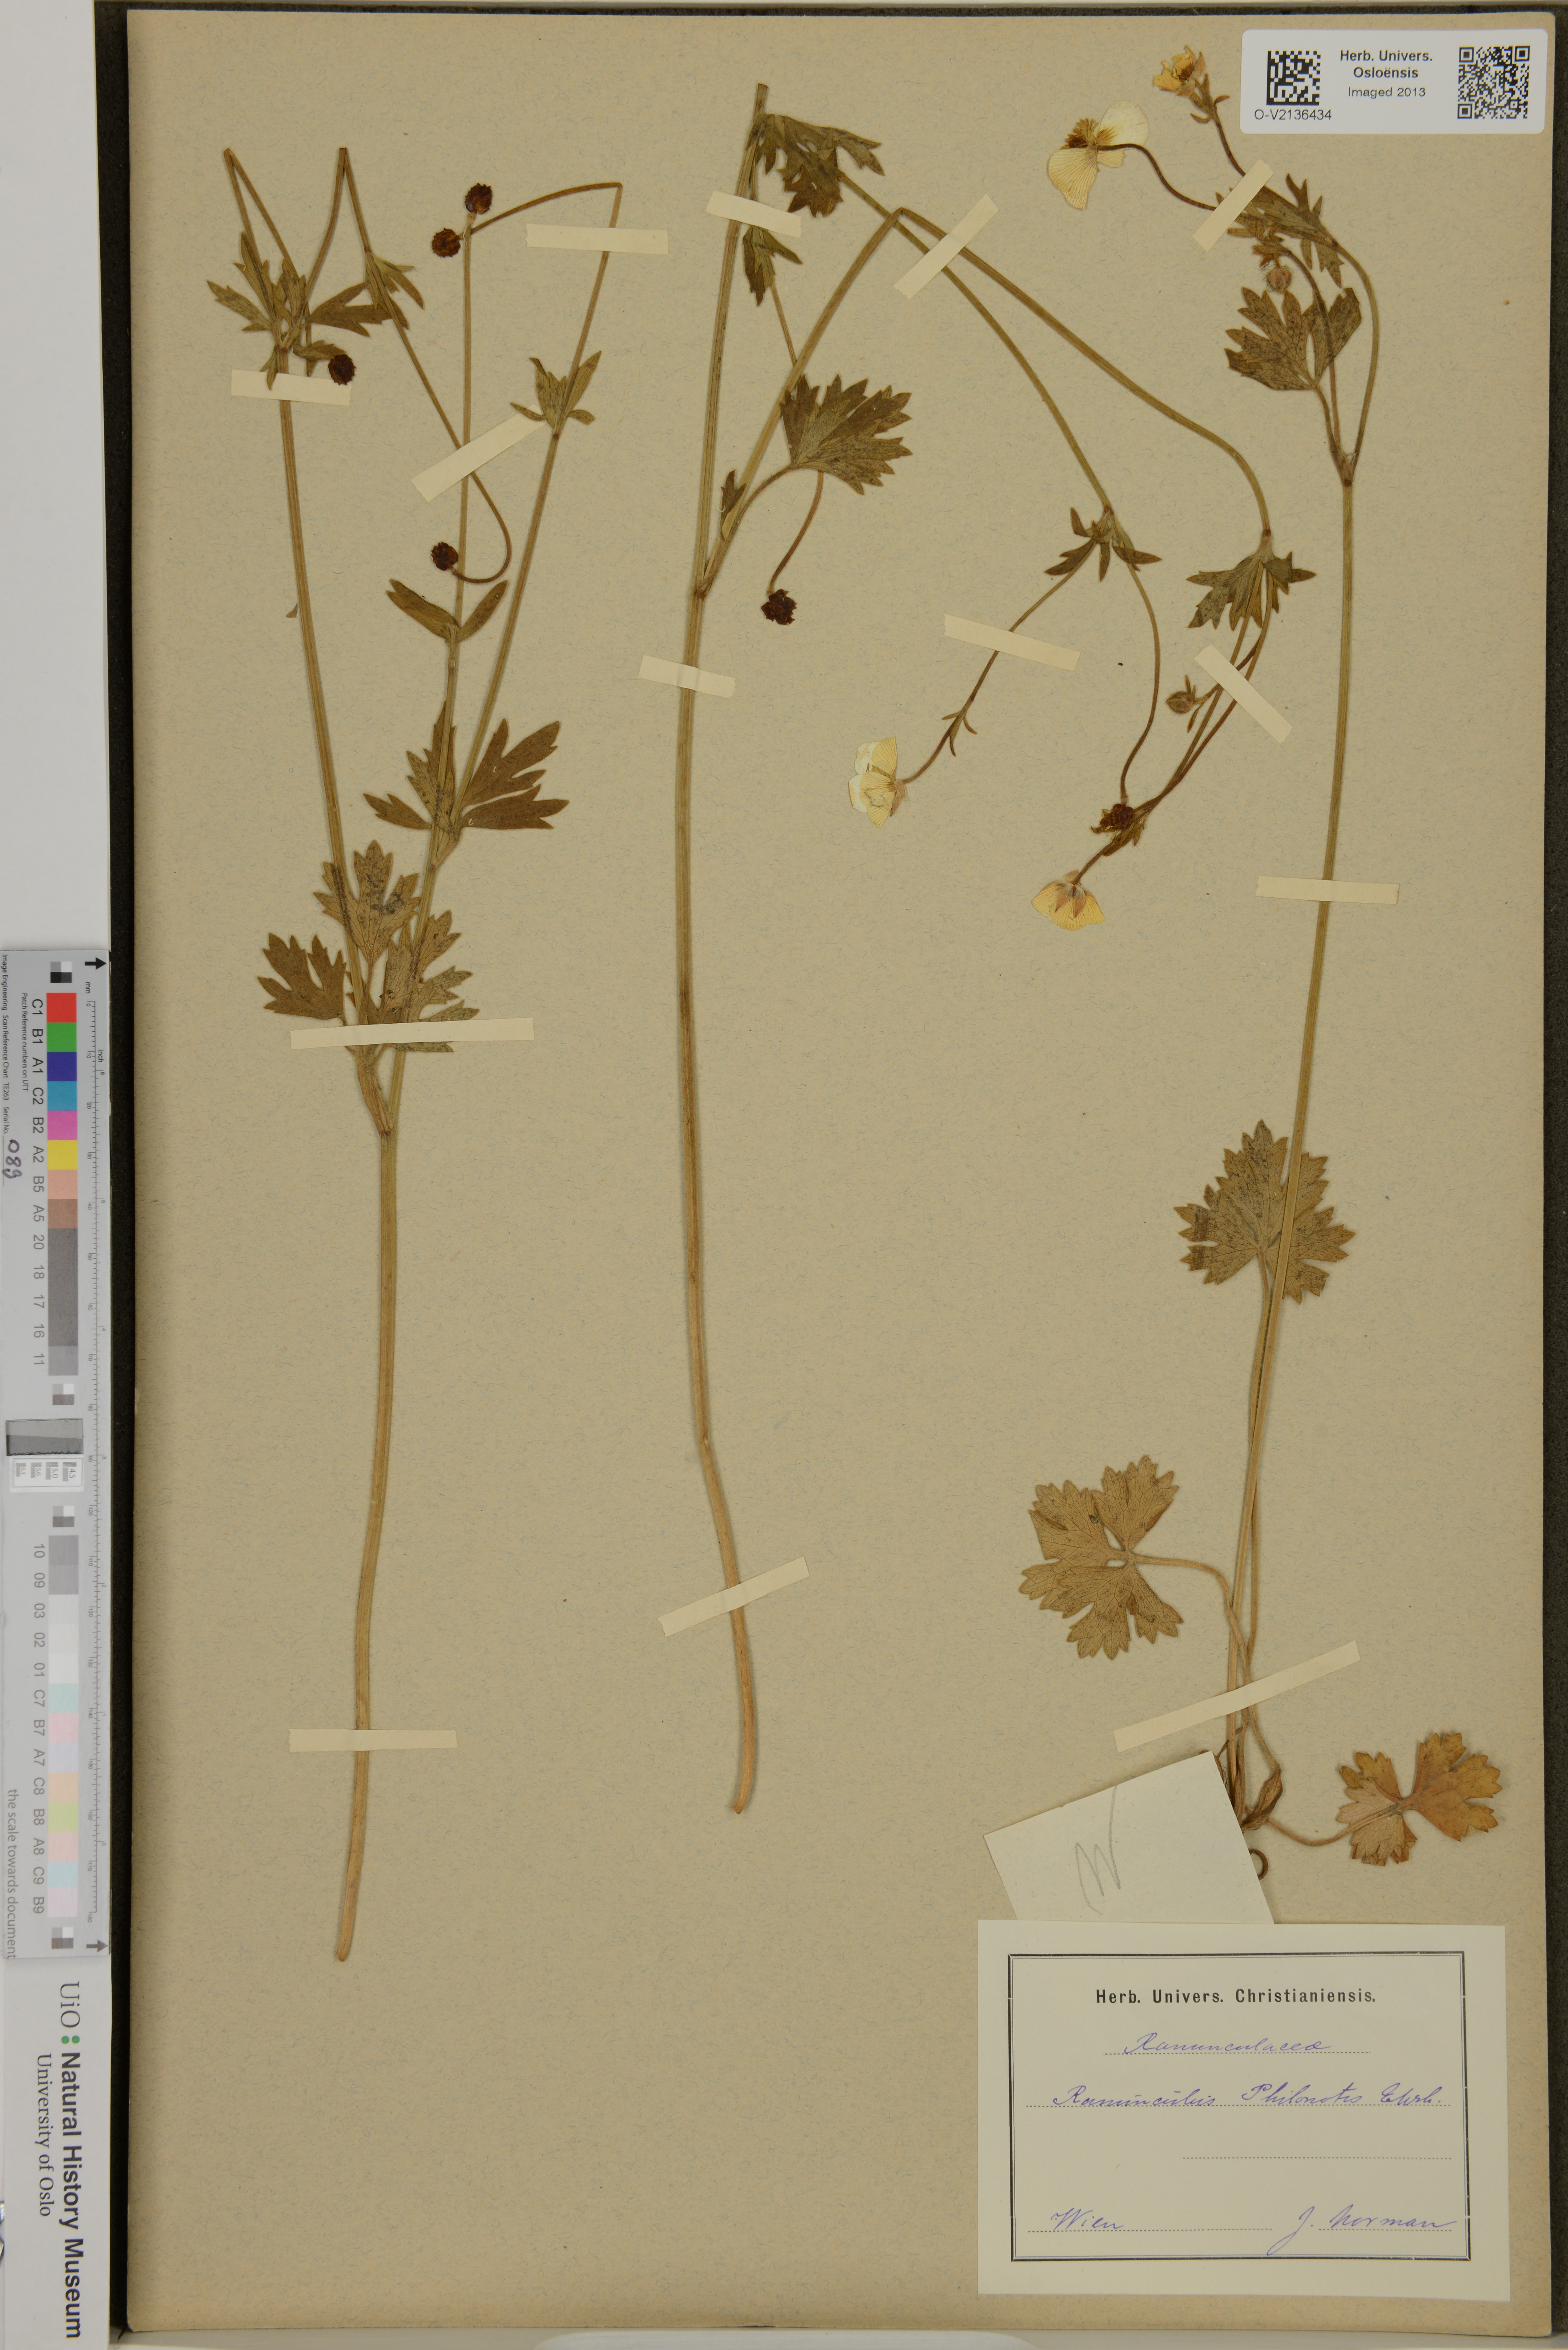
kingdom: Plantae
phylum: Tracheophyta
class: Magnoliopsida
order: Ranunculales
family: Ranunculaceae
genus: Ranunculus
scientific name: Ranunculus sardous
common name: Hairy buttercup
